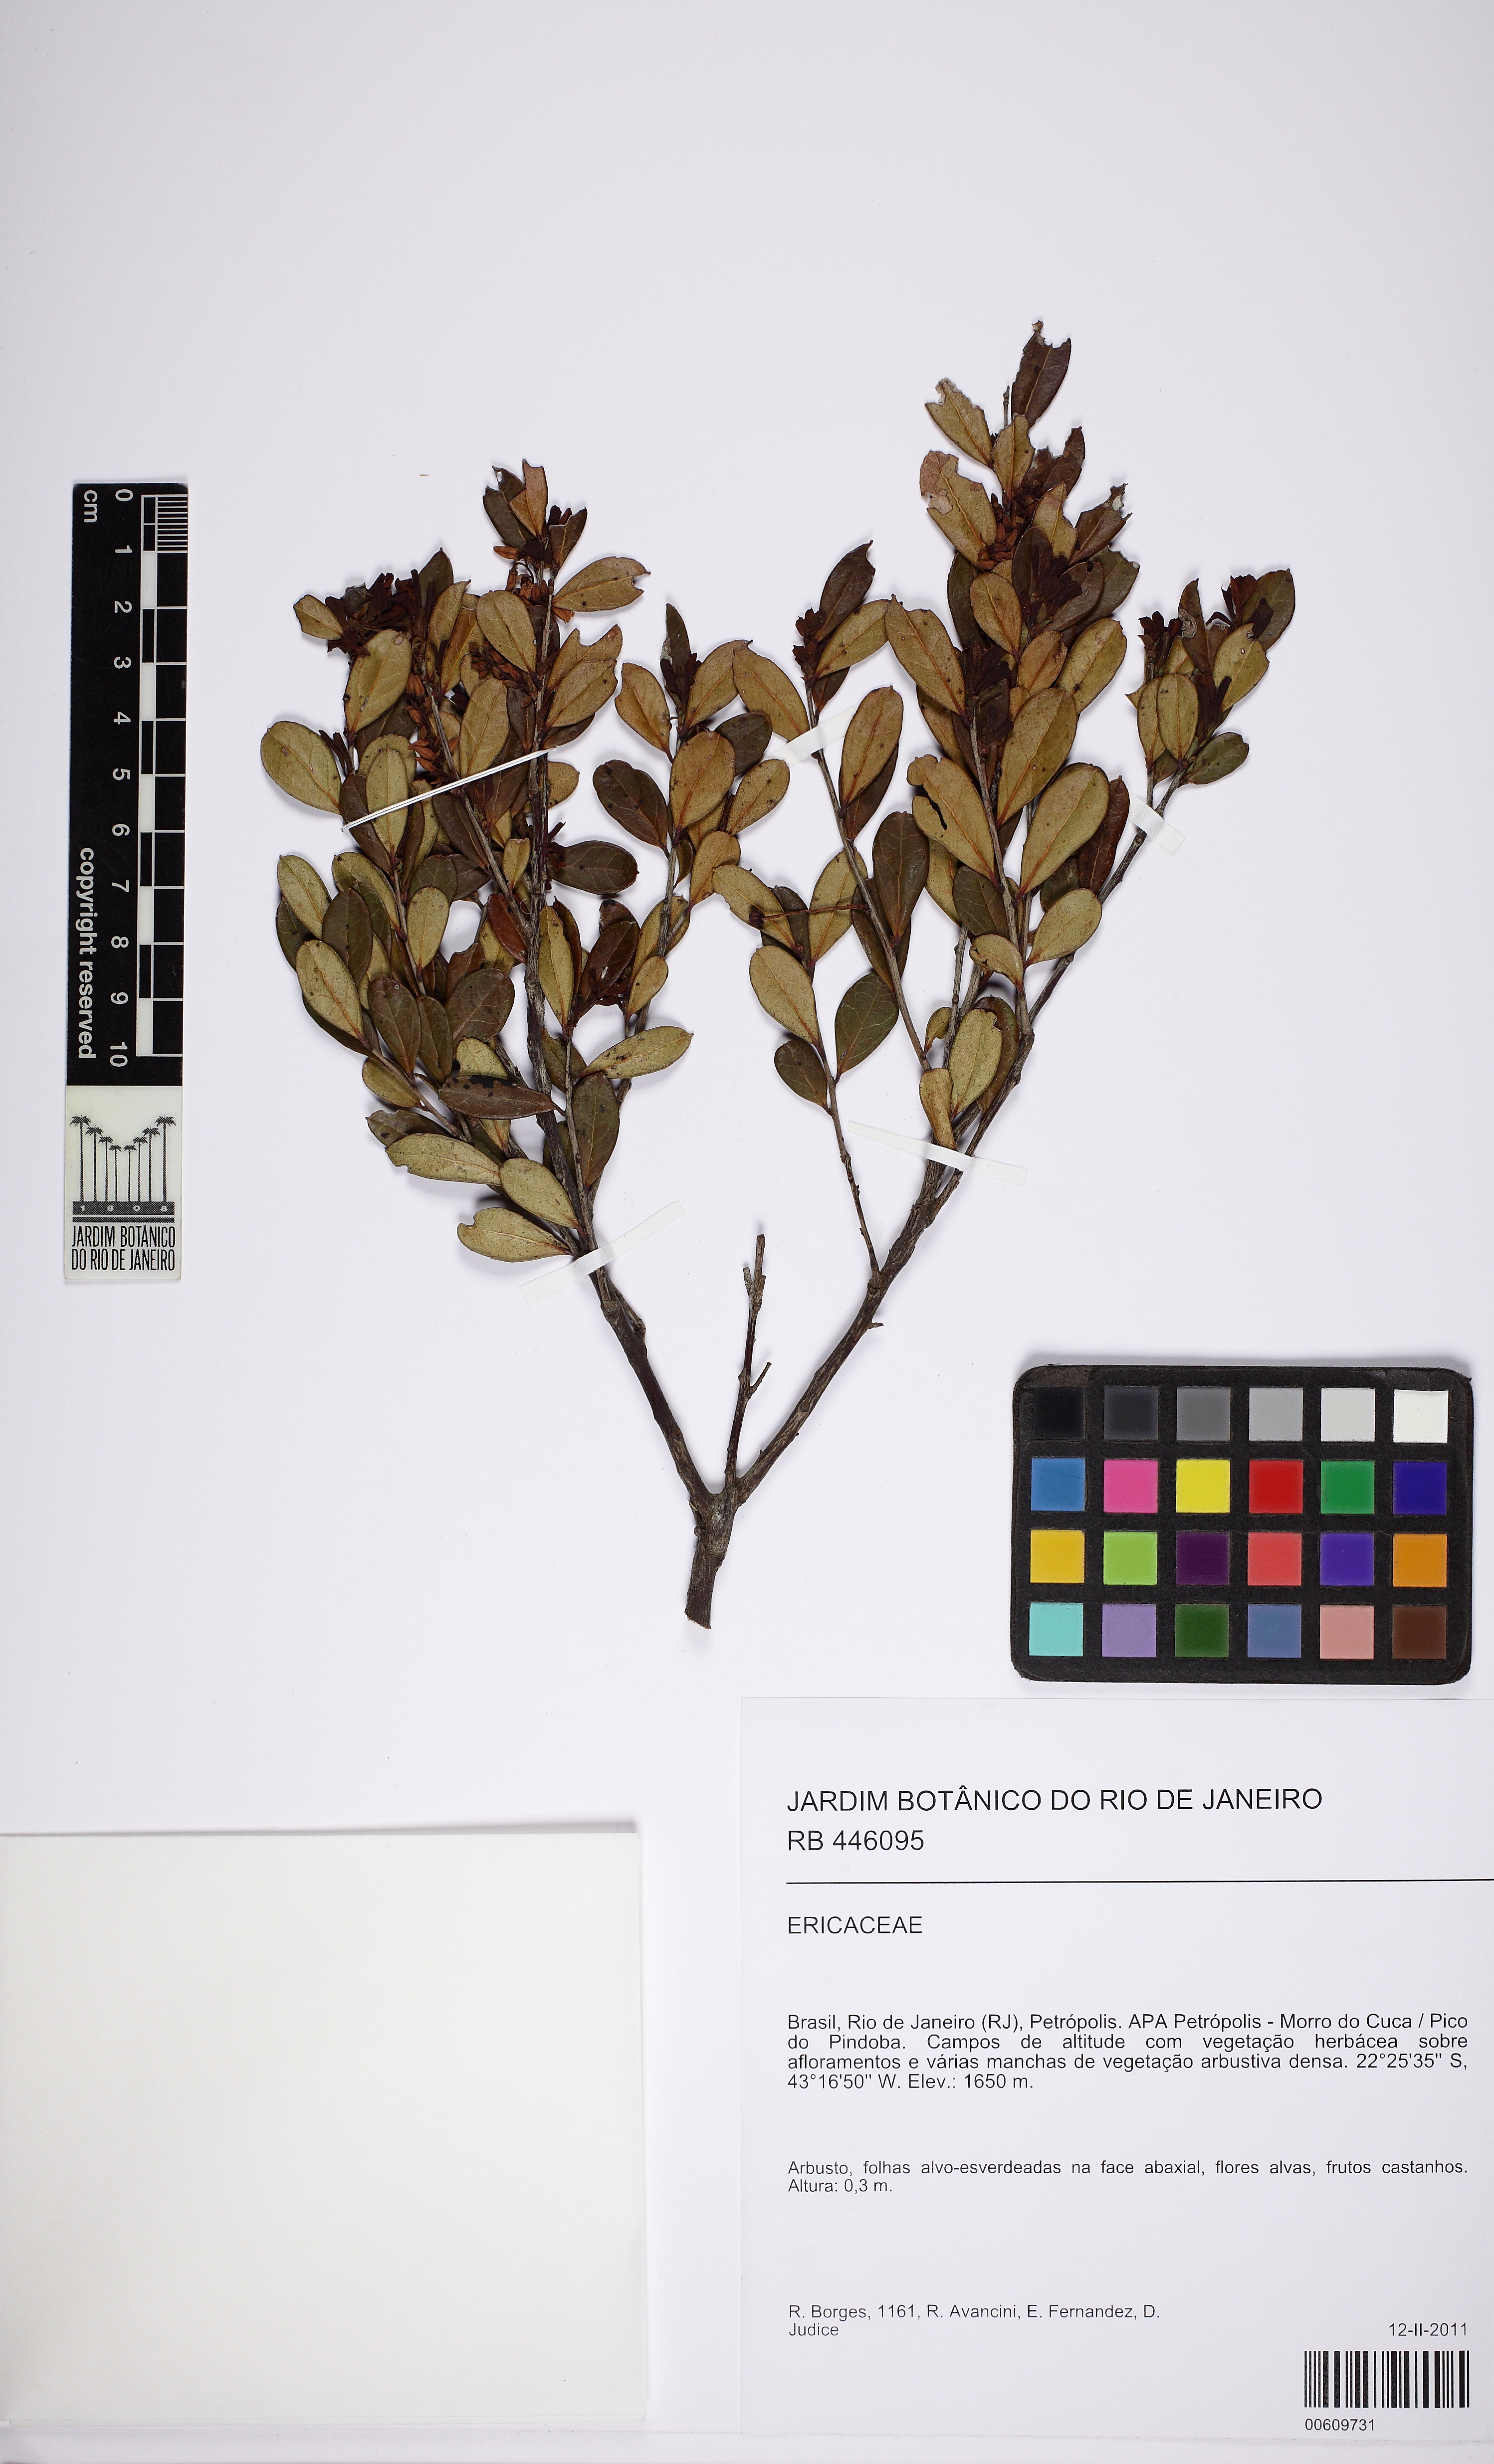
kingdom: Plantae
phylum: Tracheophyta
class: Magnoliopsida
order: Ericales
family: Ericaceae
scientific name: Ericaceae
